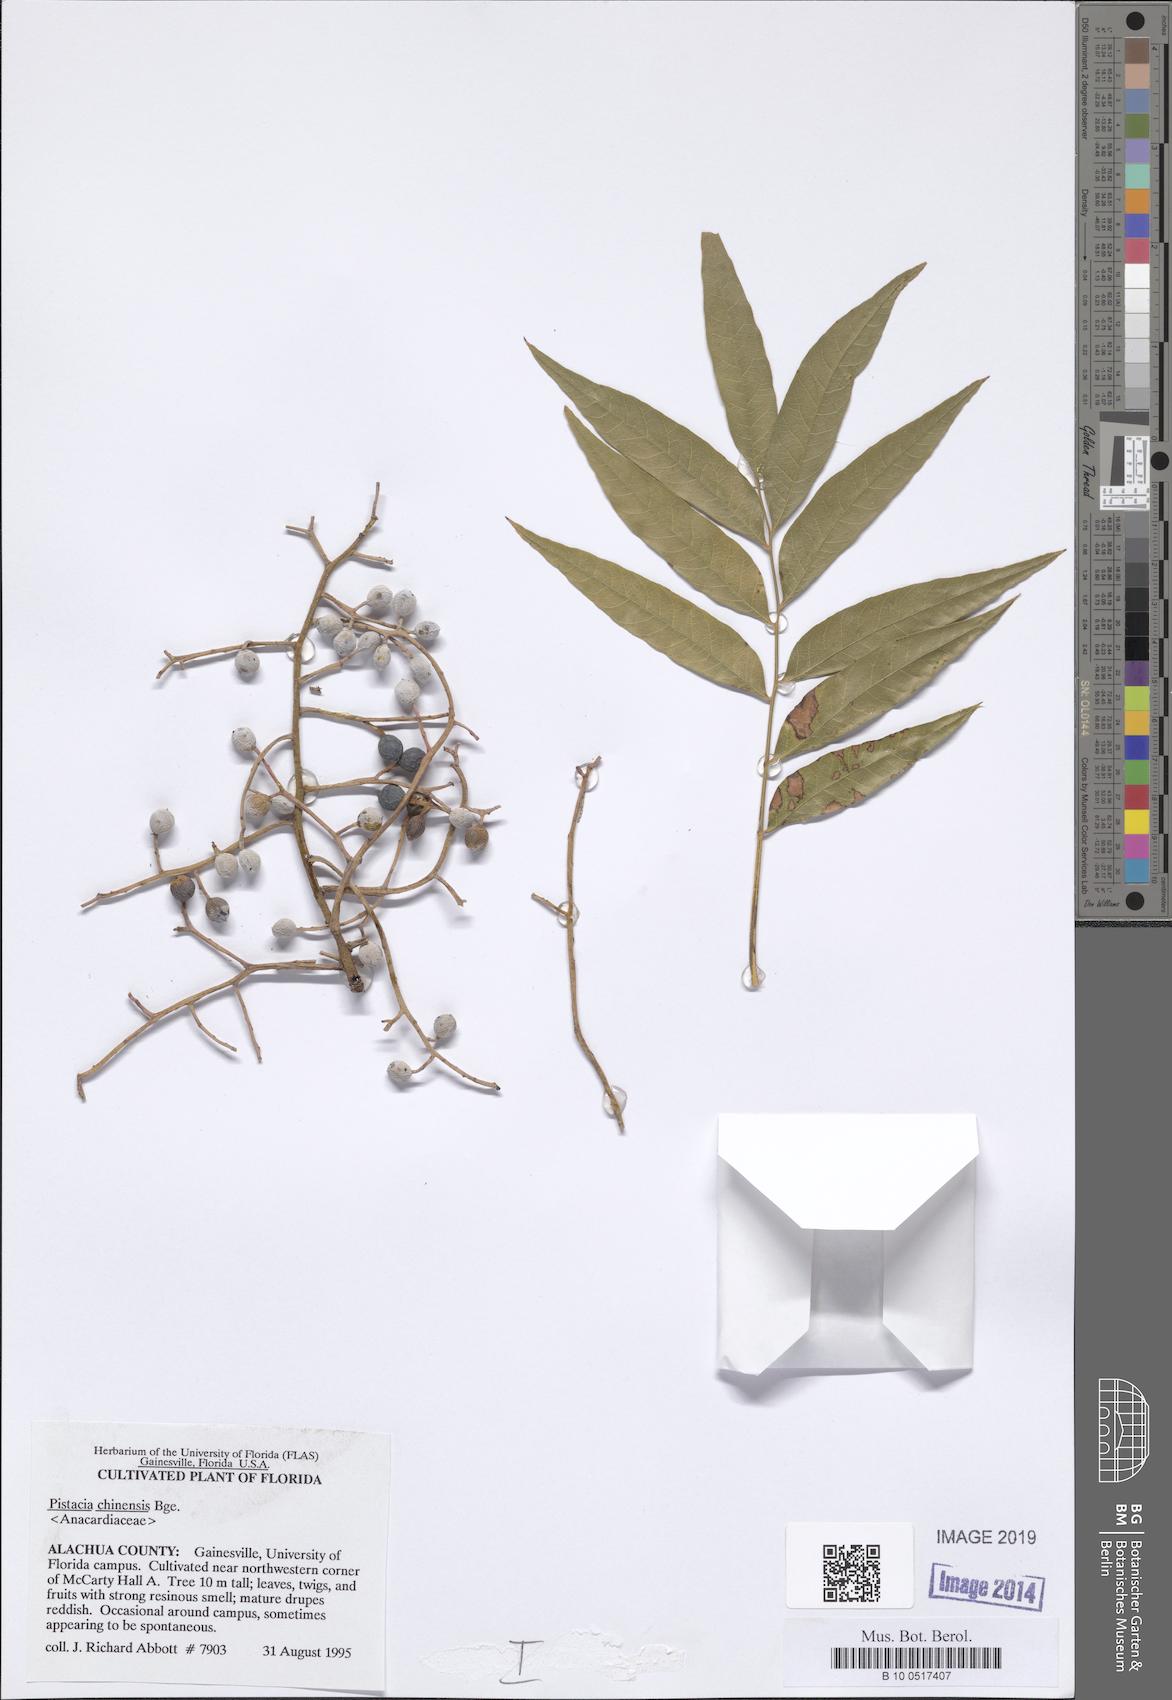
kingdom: Plantae
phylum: Tracheophyta
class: Magnoliopsida
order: Sapindales
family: Anacardiaceae
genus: Pistacia
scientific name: Pistacia chinensis
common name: Chinese pistache
